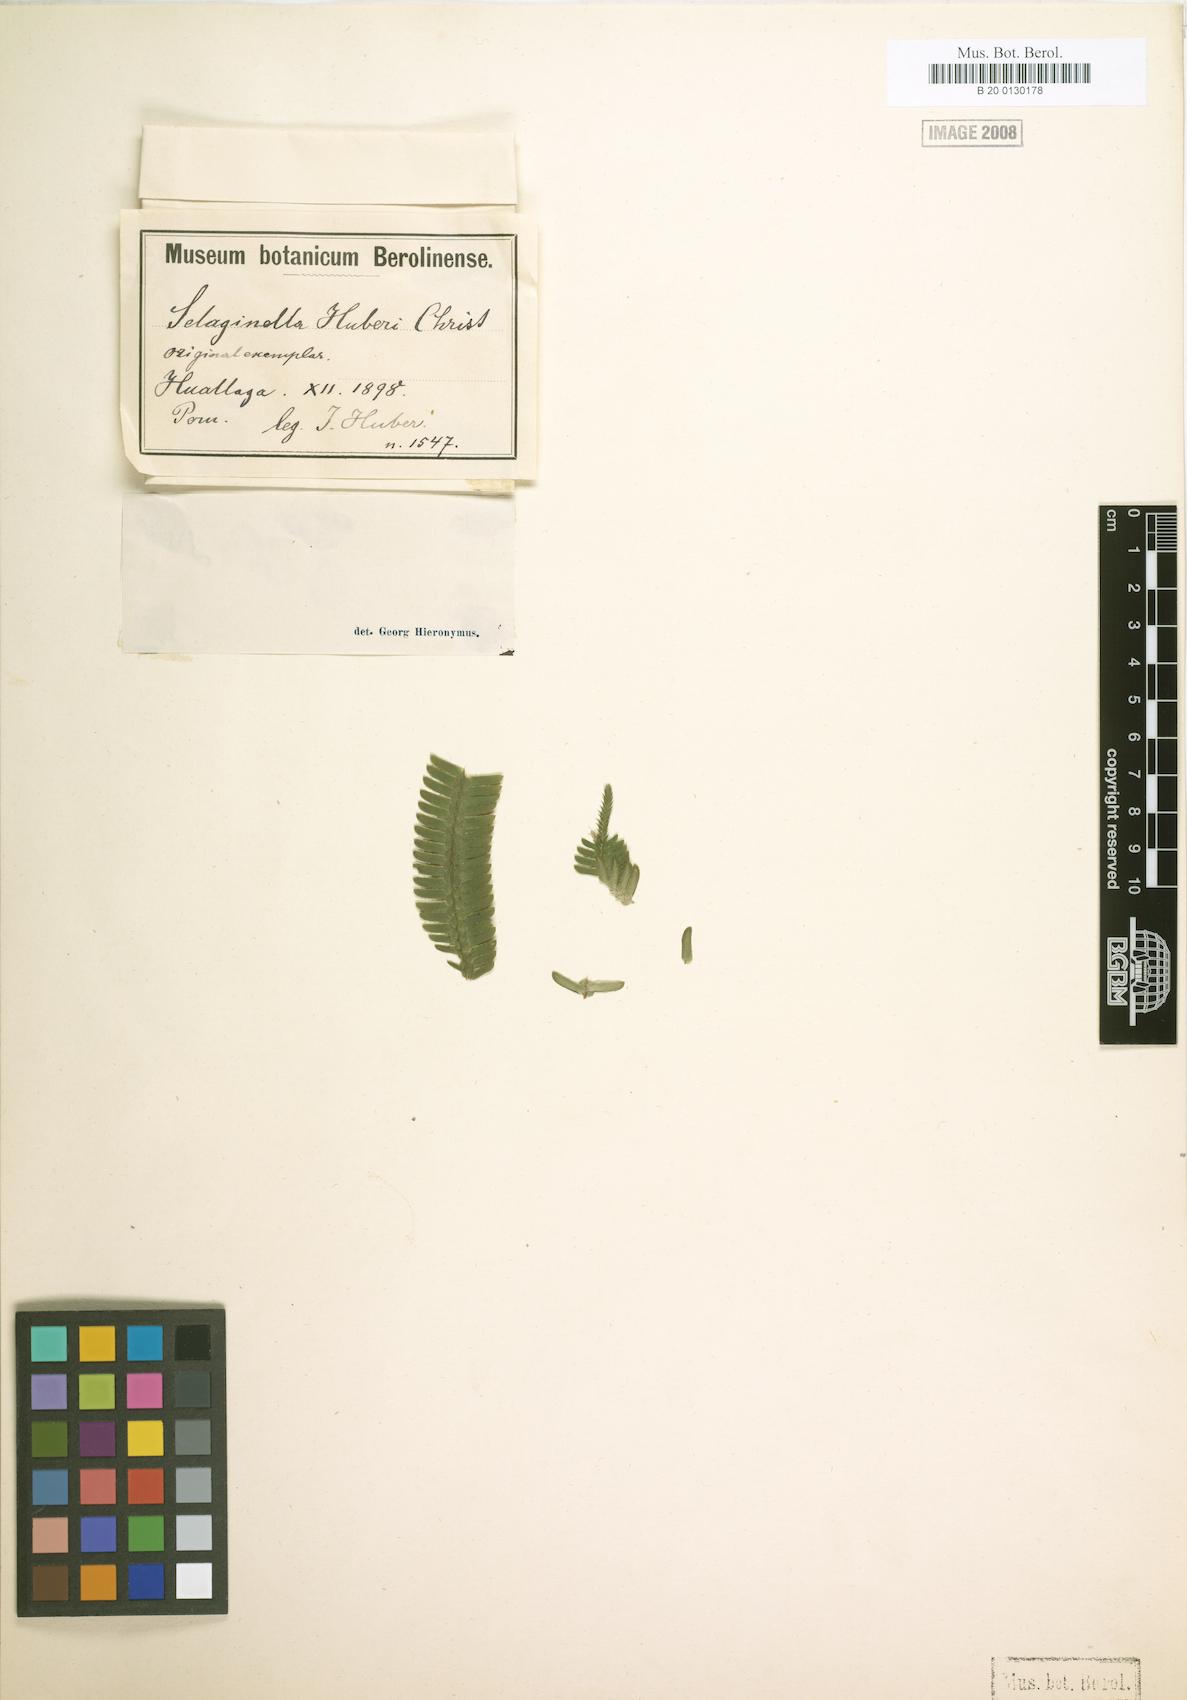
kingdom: Plantae
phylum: Tracheophyta
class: Lycopodiopsida
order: Selaginellales
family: Selaginellaceae
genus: Selaginella
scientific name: Selaginella speciosa
